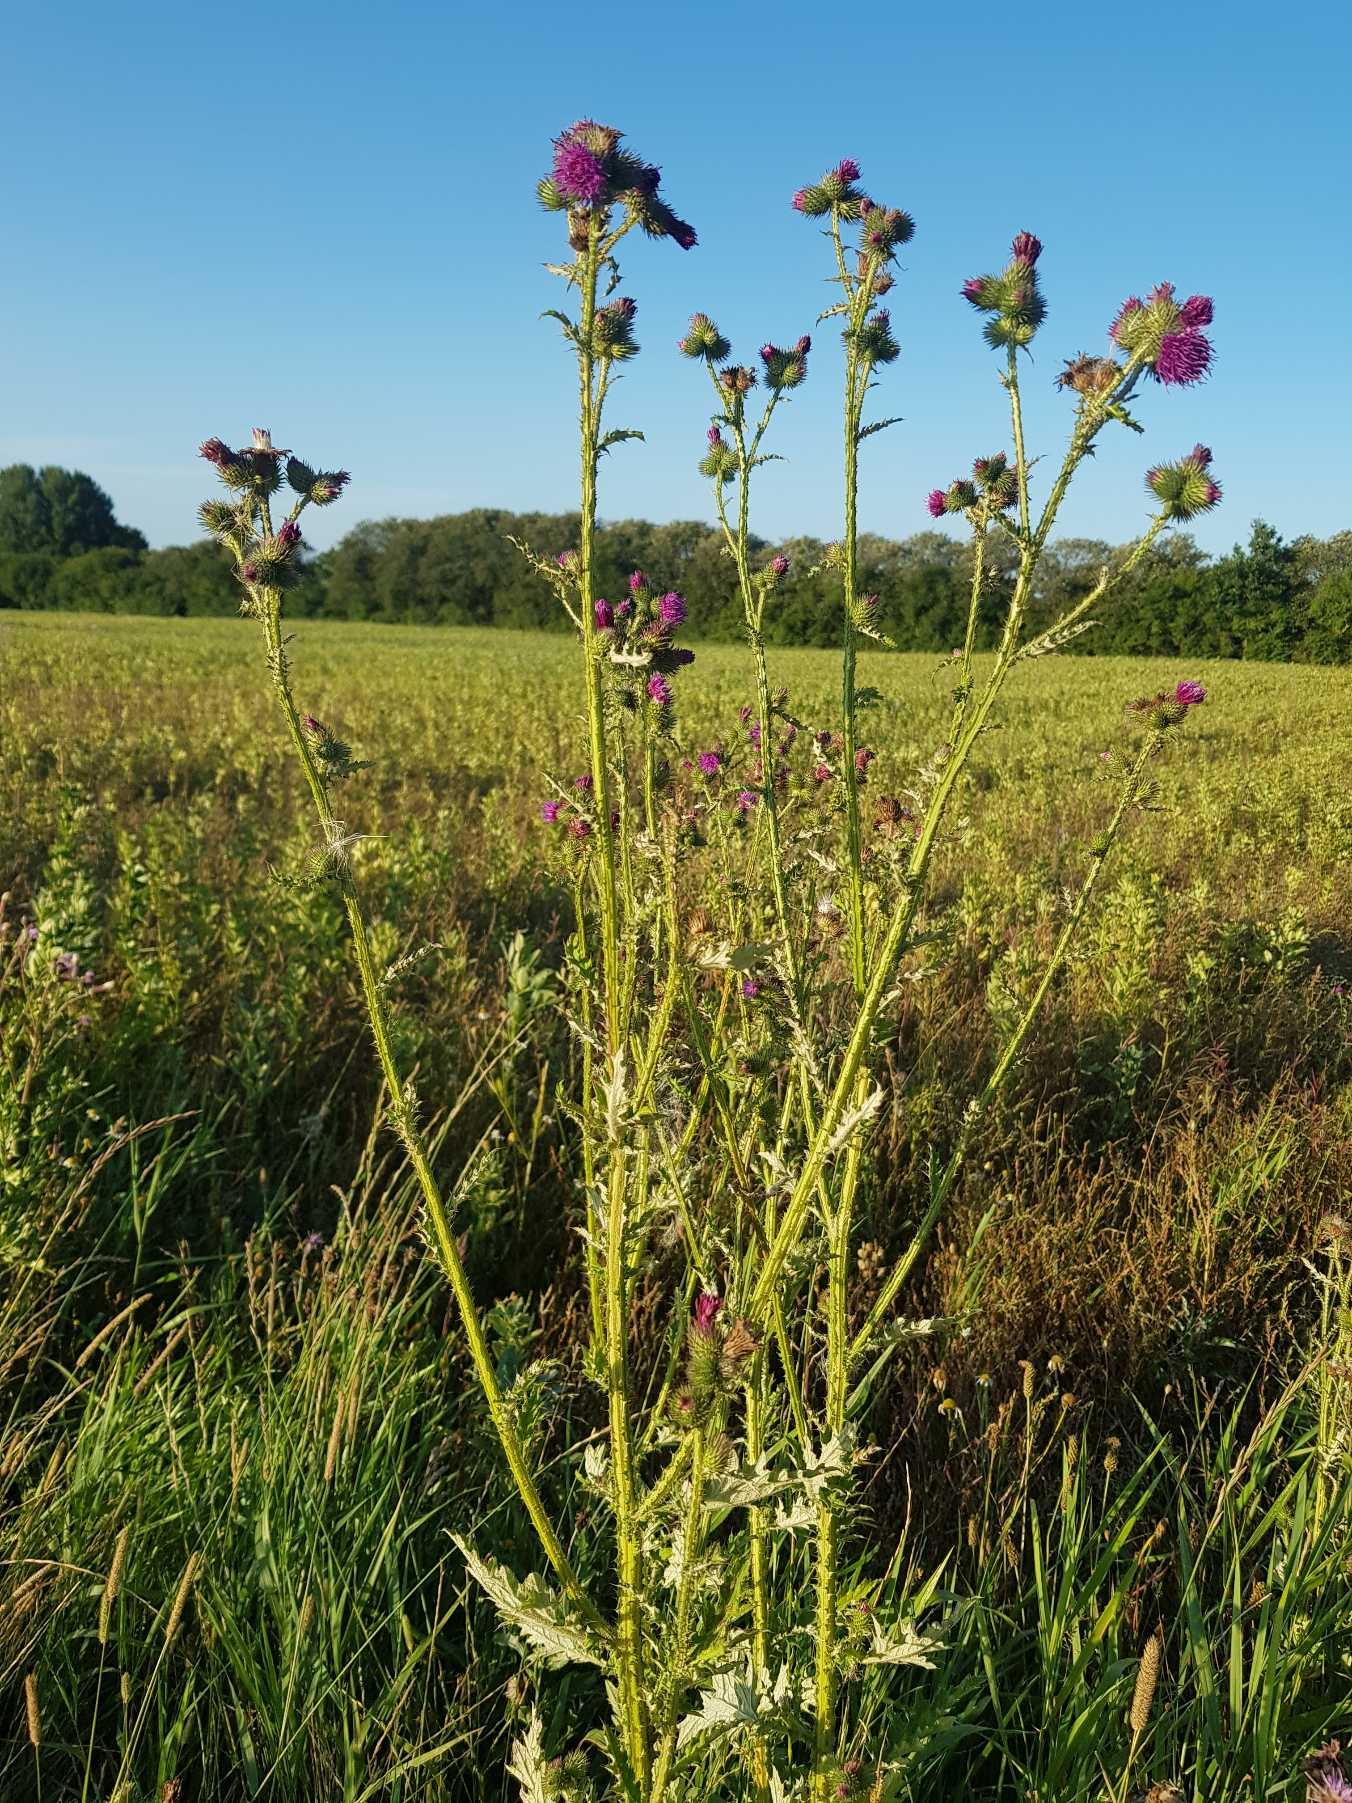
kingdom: Plantae
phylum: Tracheophyta
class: Magnoliopsida
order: Asterales
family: Asteraceae
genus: Cirsium
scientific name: Cirsium palustre
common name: Kær-tidsel
